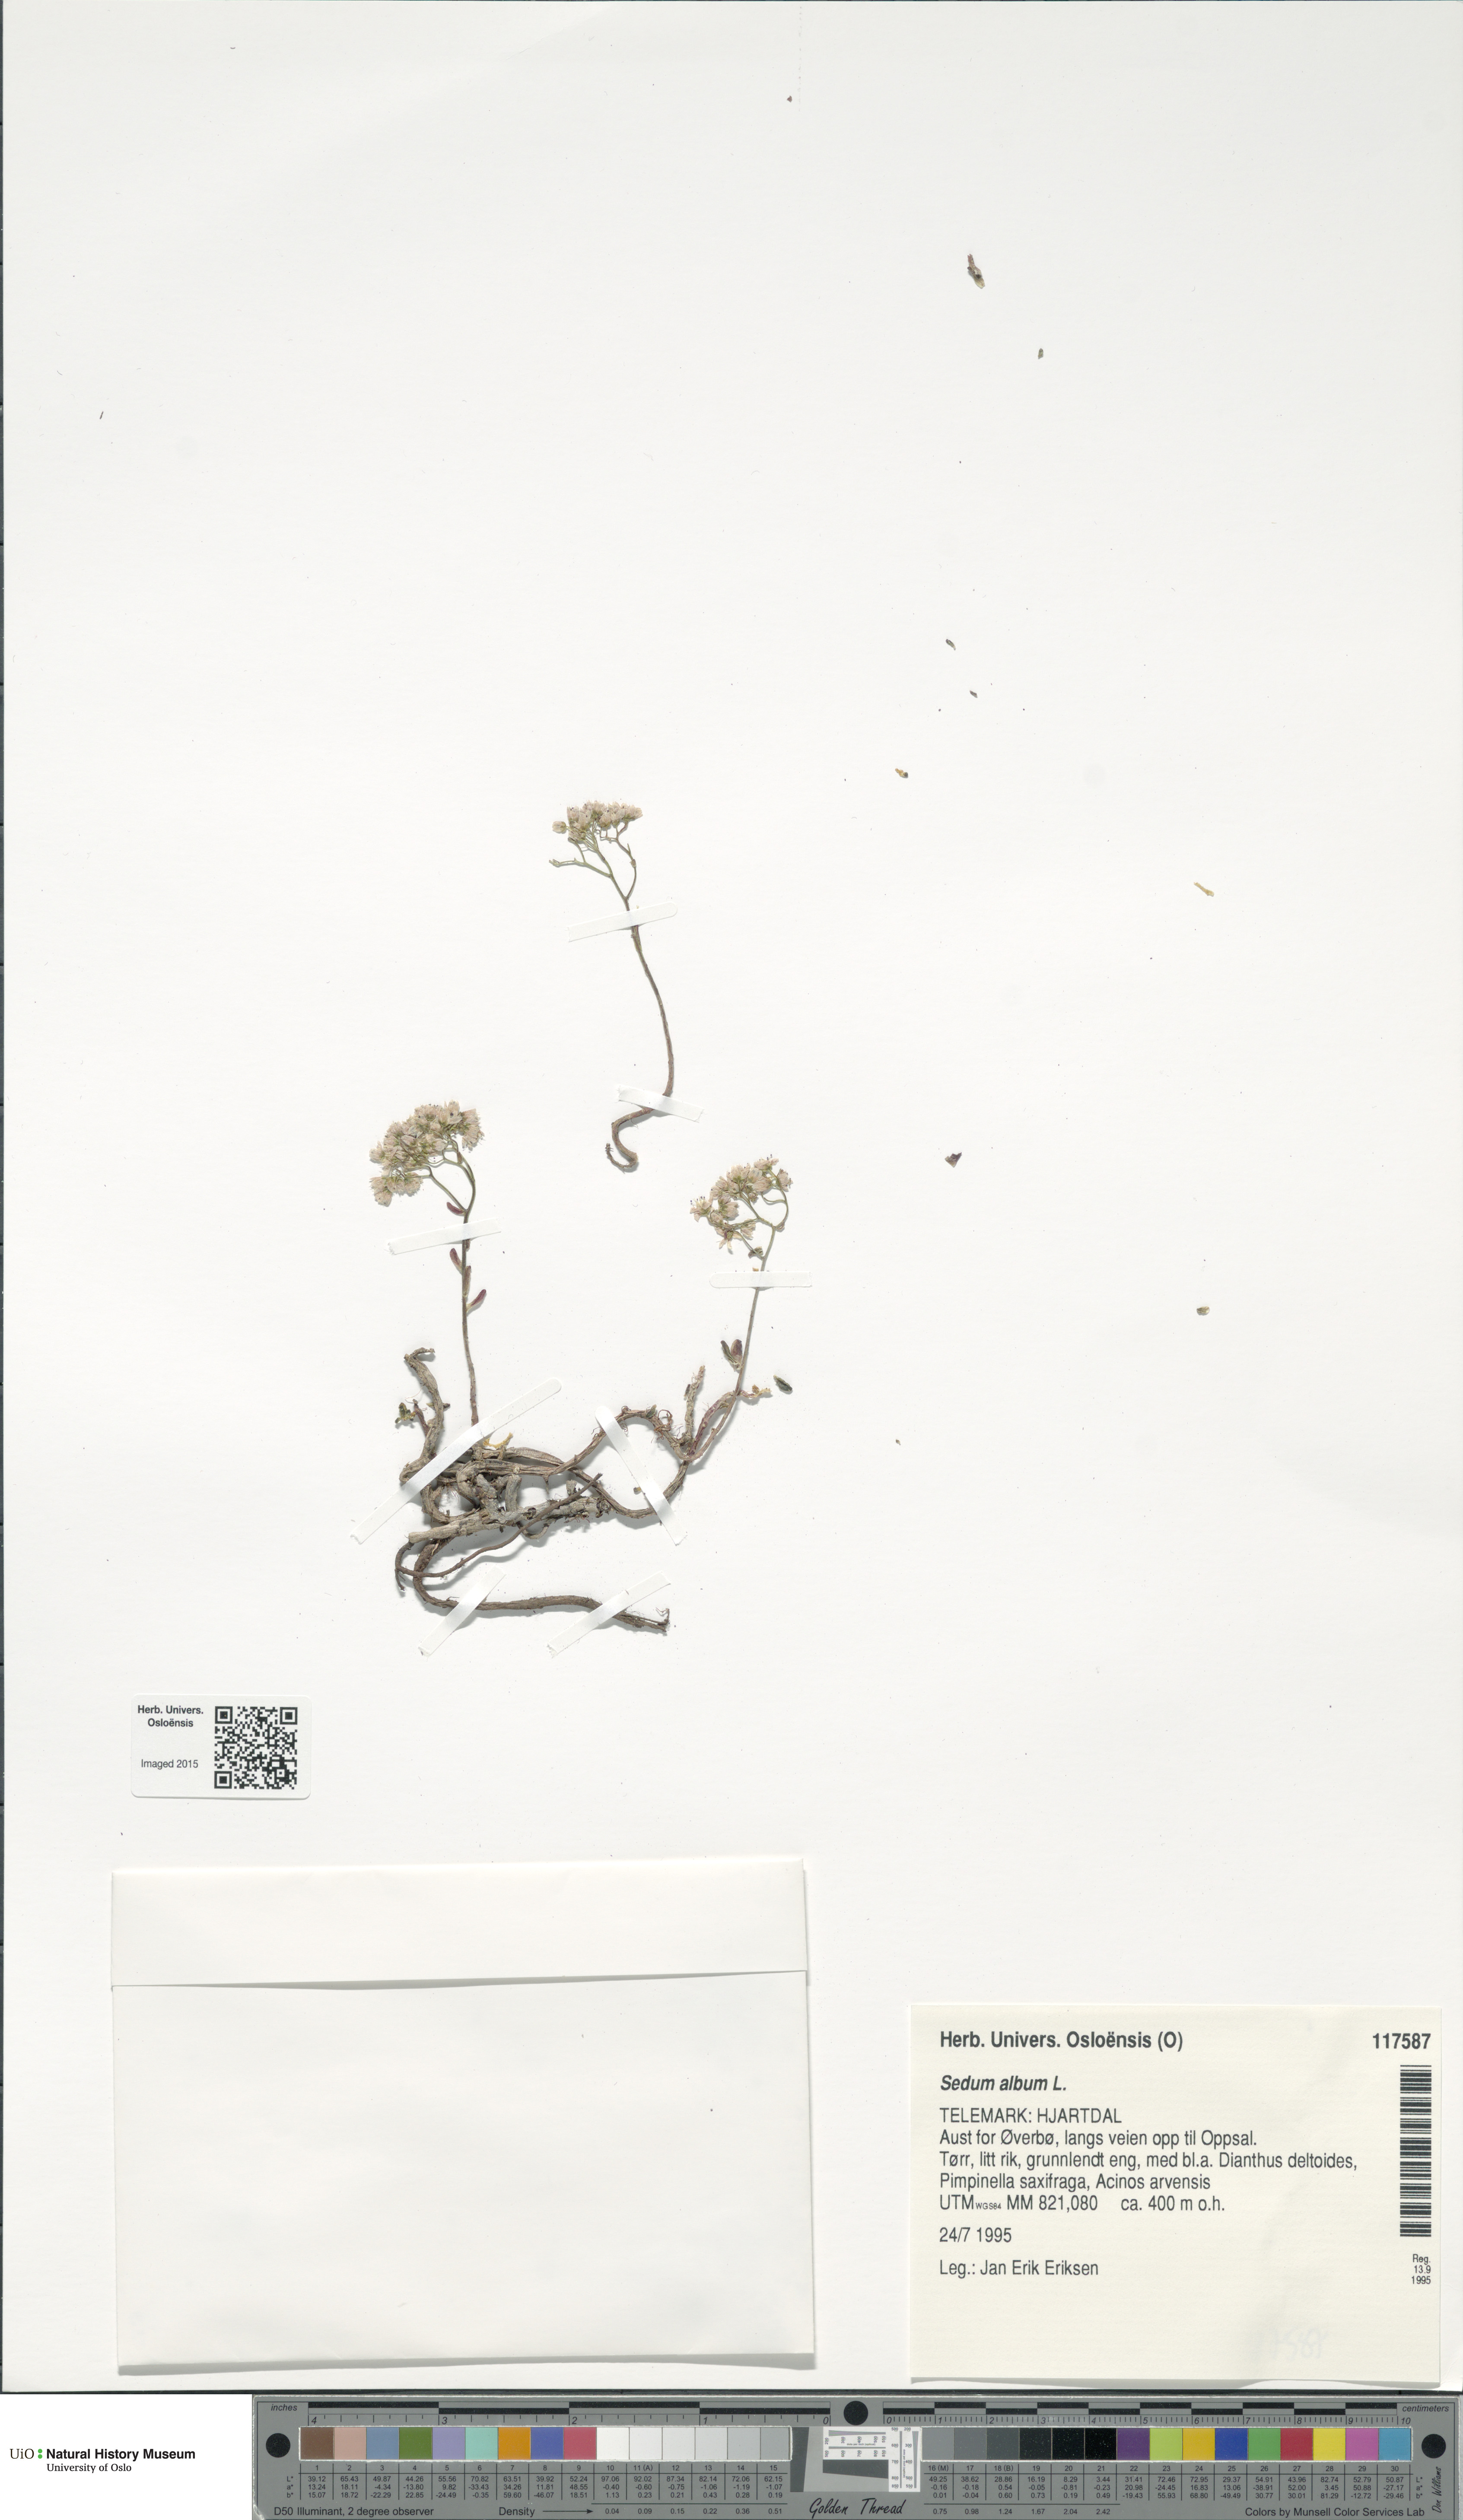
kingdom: Plantae
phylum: Tracheophyta
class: Magnoliopsida
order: Saxifragales
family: Crassulaceae
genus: Sedum
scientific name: Sedum album
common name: White stonecrop
